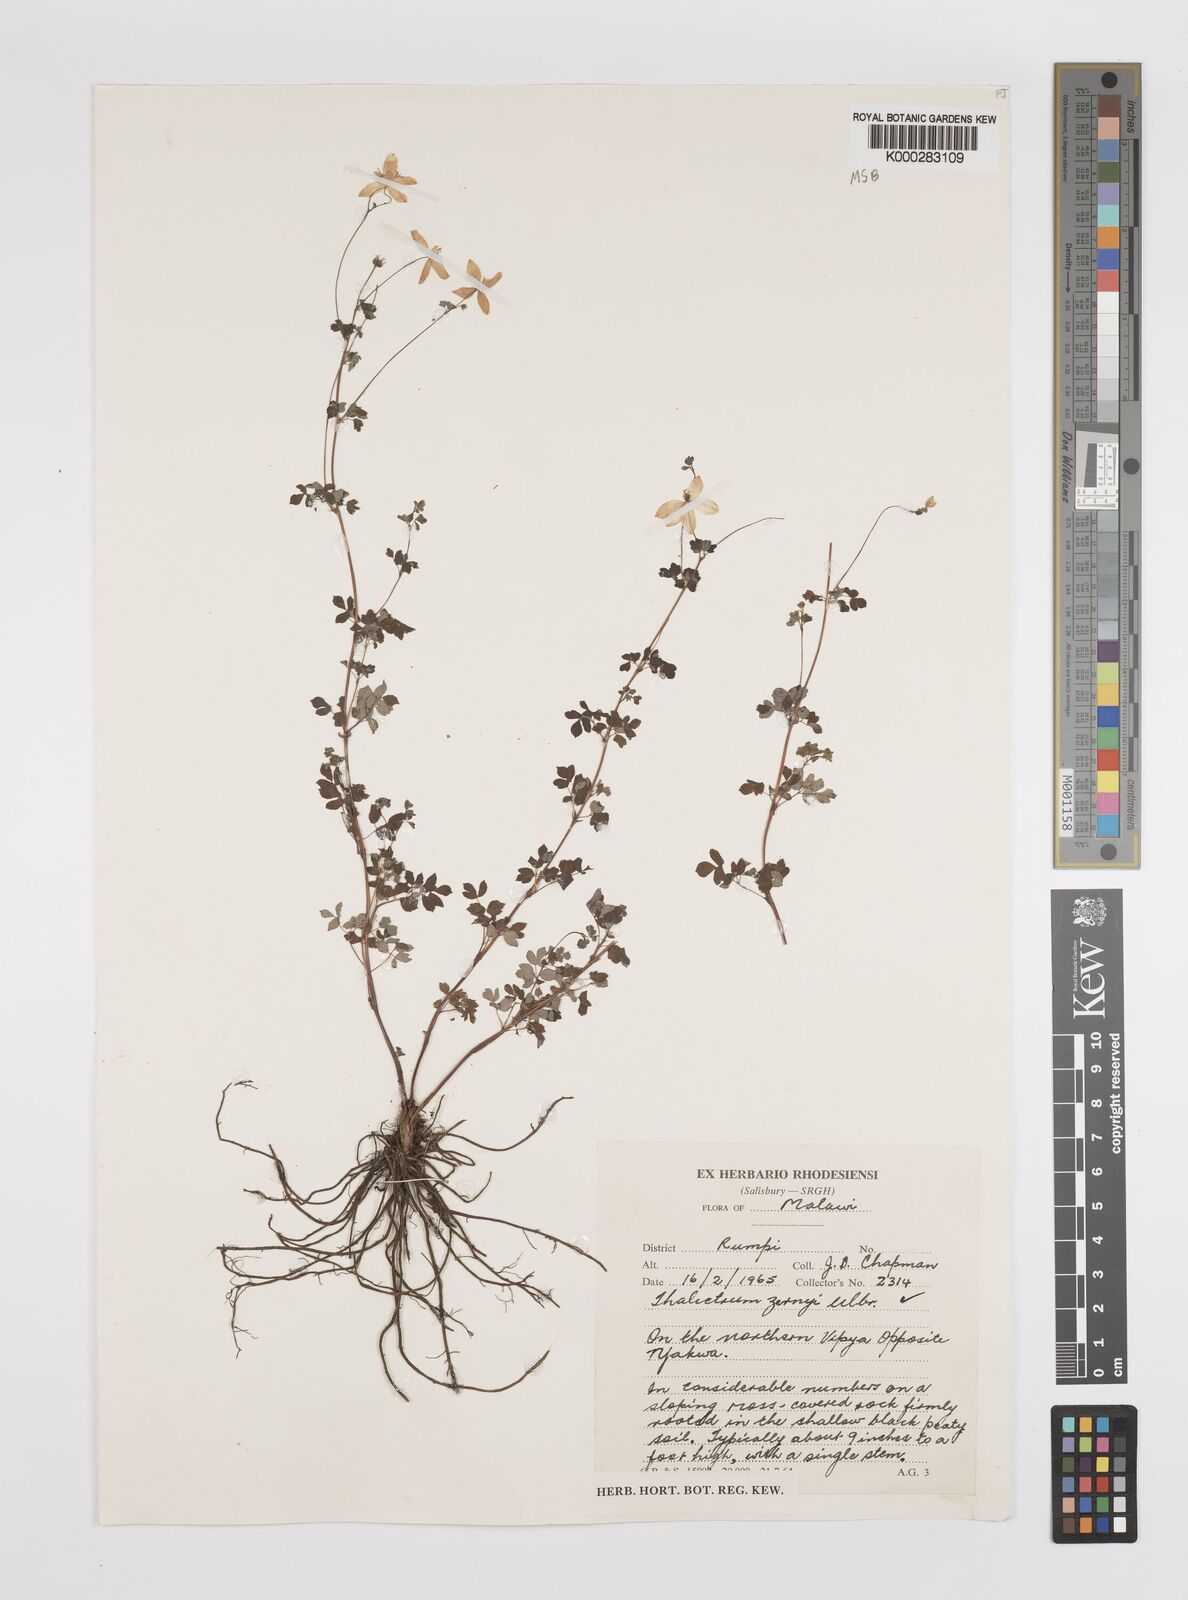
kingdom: Plantae
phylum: Tracheophyta
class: Magnoliopsida
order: Ranunculales
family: Ranunculaceae
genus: Thalictrum
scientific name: Thalictrum zernyi
